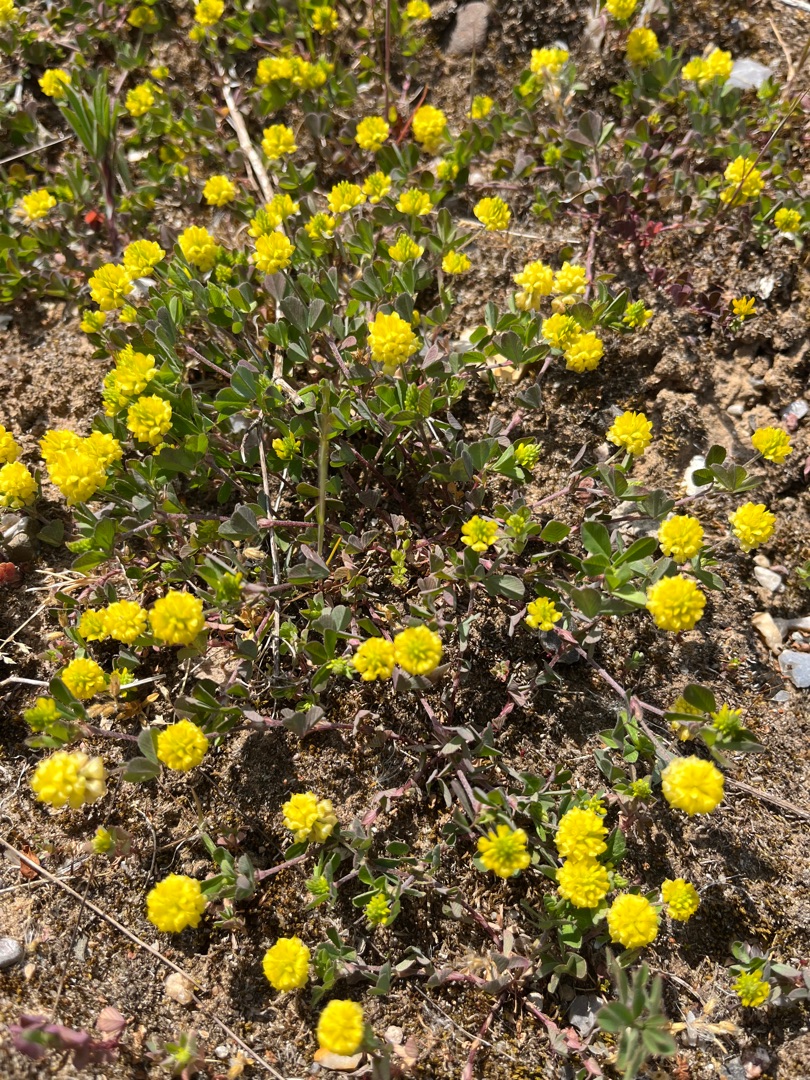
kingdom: Plantae
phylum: Tracheophyta
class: Magnoliopsida
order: Fabales
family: Fabaceae
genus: Trifolium
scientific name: Trifolium campestre
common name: Gul kløver
